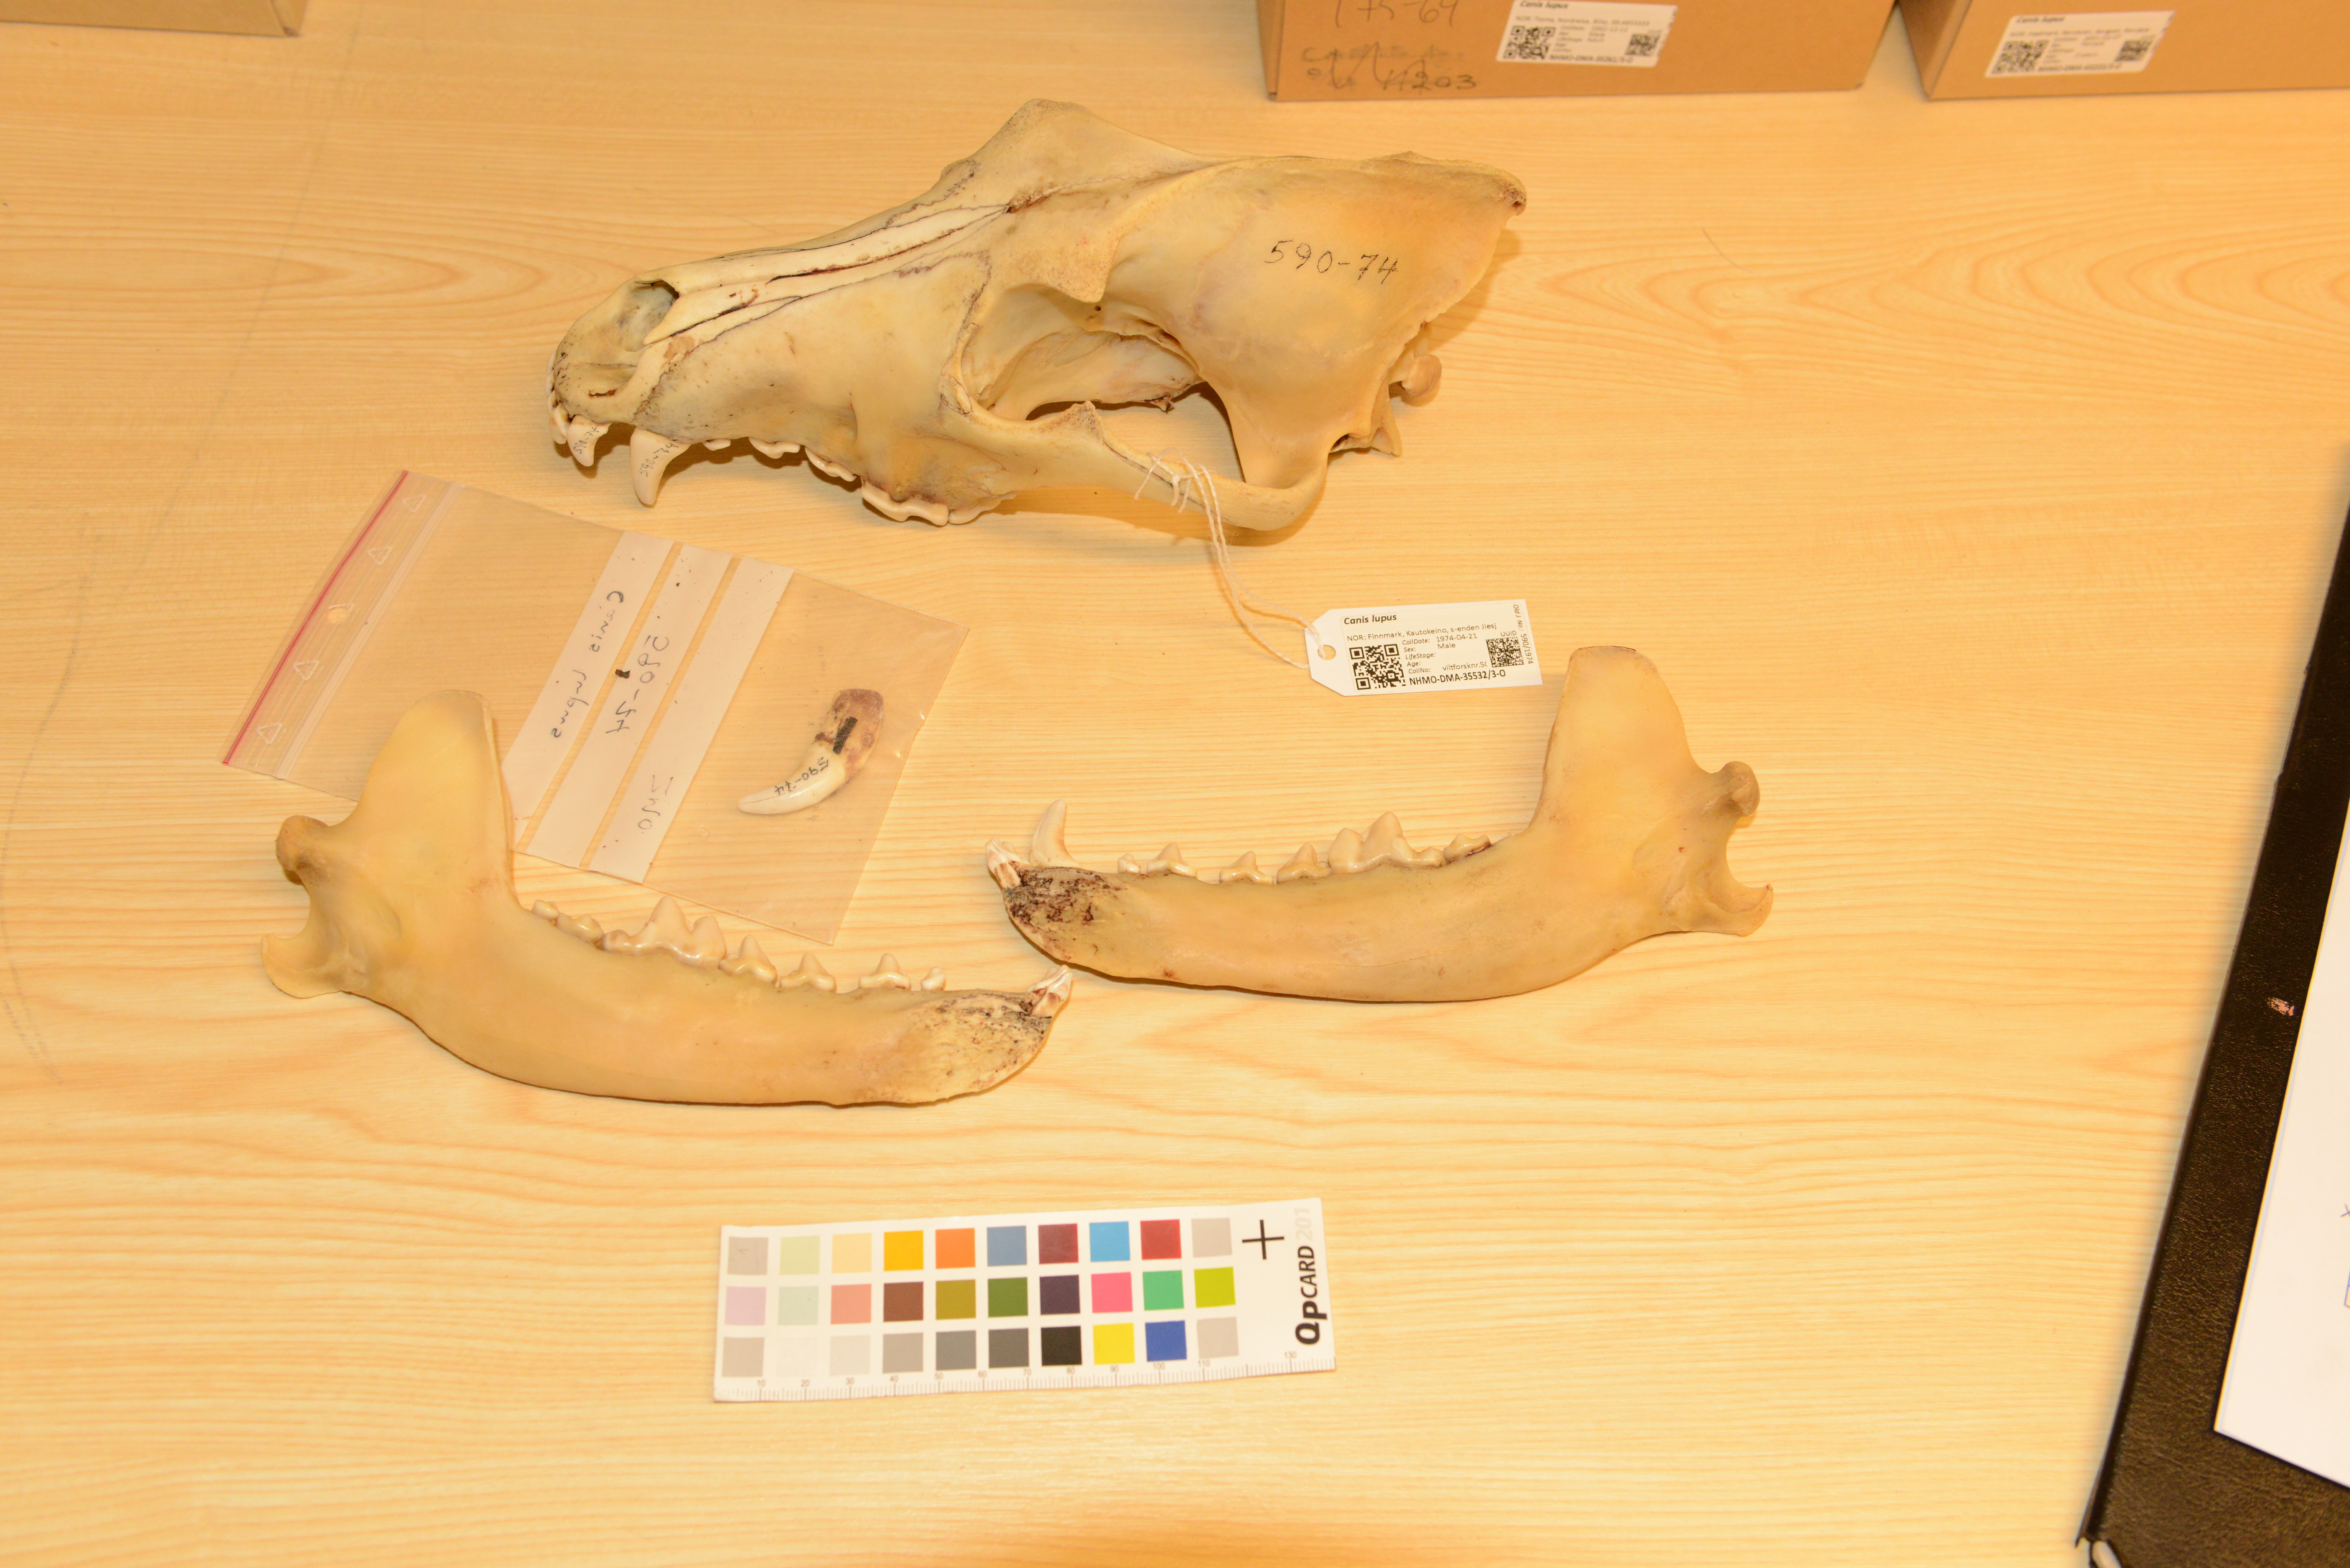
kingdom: Animalia
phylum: Chordata
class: Mammalia
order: Carnivora
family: Canidae
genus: Canis
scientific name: Canis lupus
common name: Gray wolf
